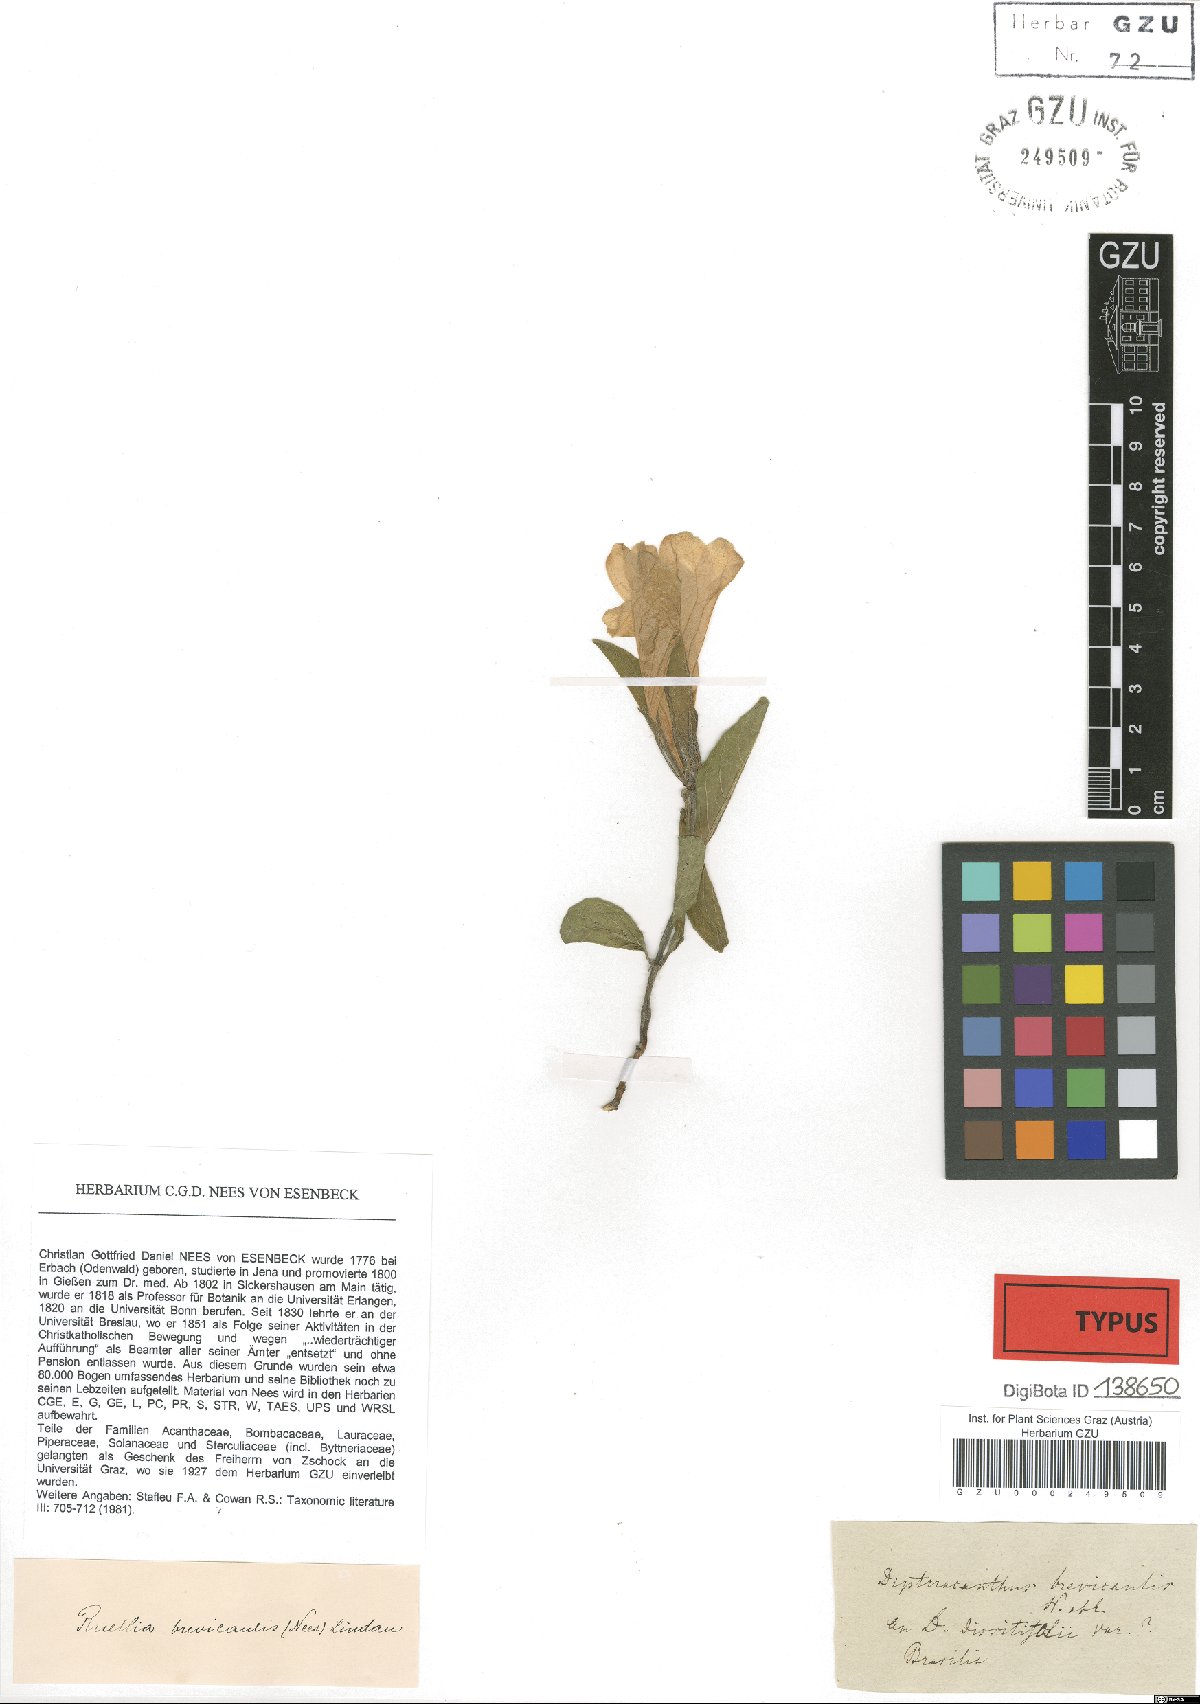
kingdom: Plantae
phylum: Tracheophyta
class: Magnoliopsida
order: Lamiales
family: Acanthaceae
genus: Ruellia
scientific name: Ruellia brevicaulis
